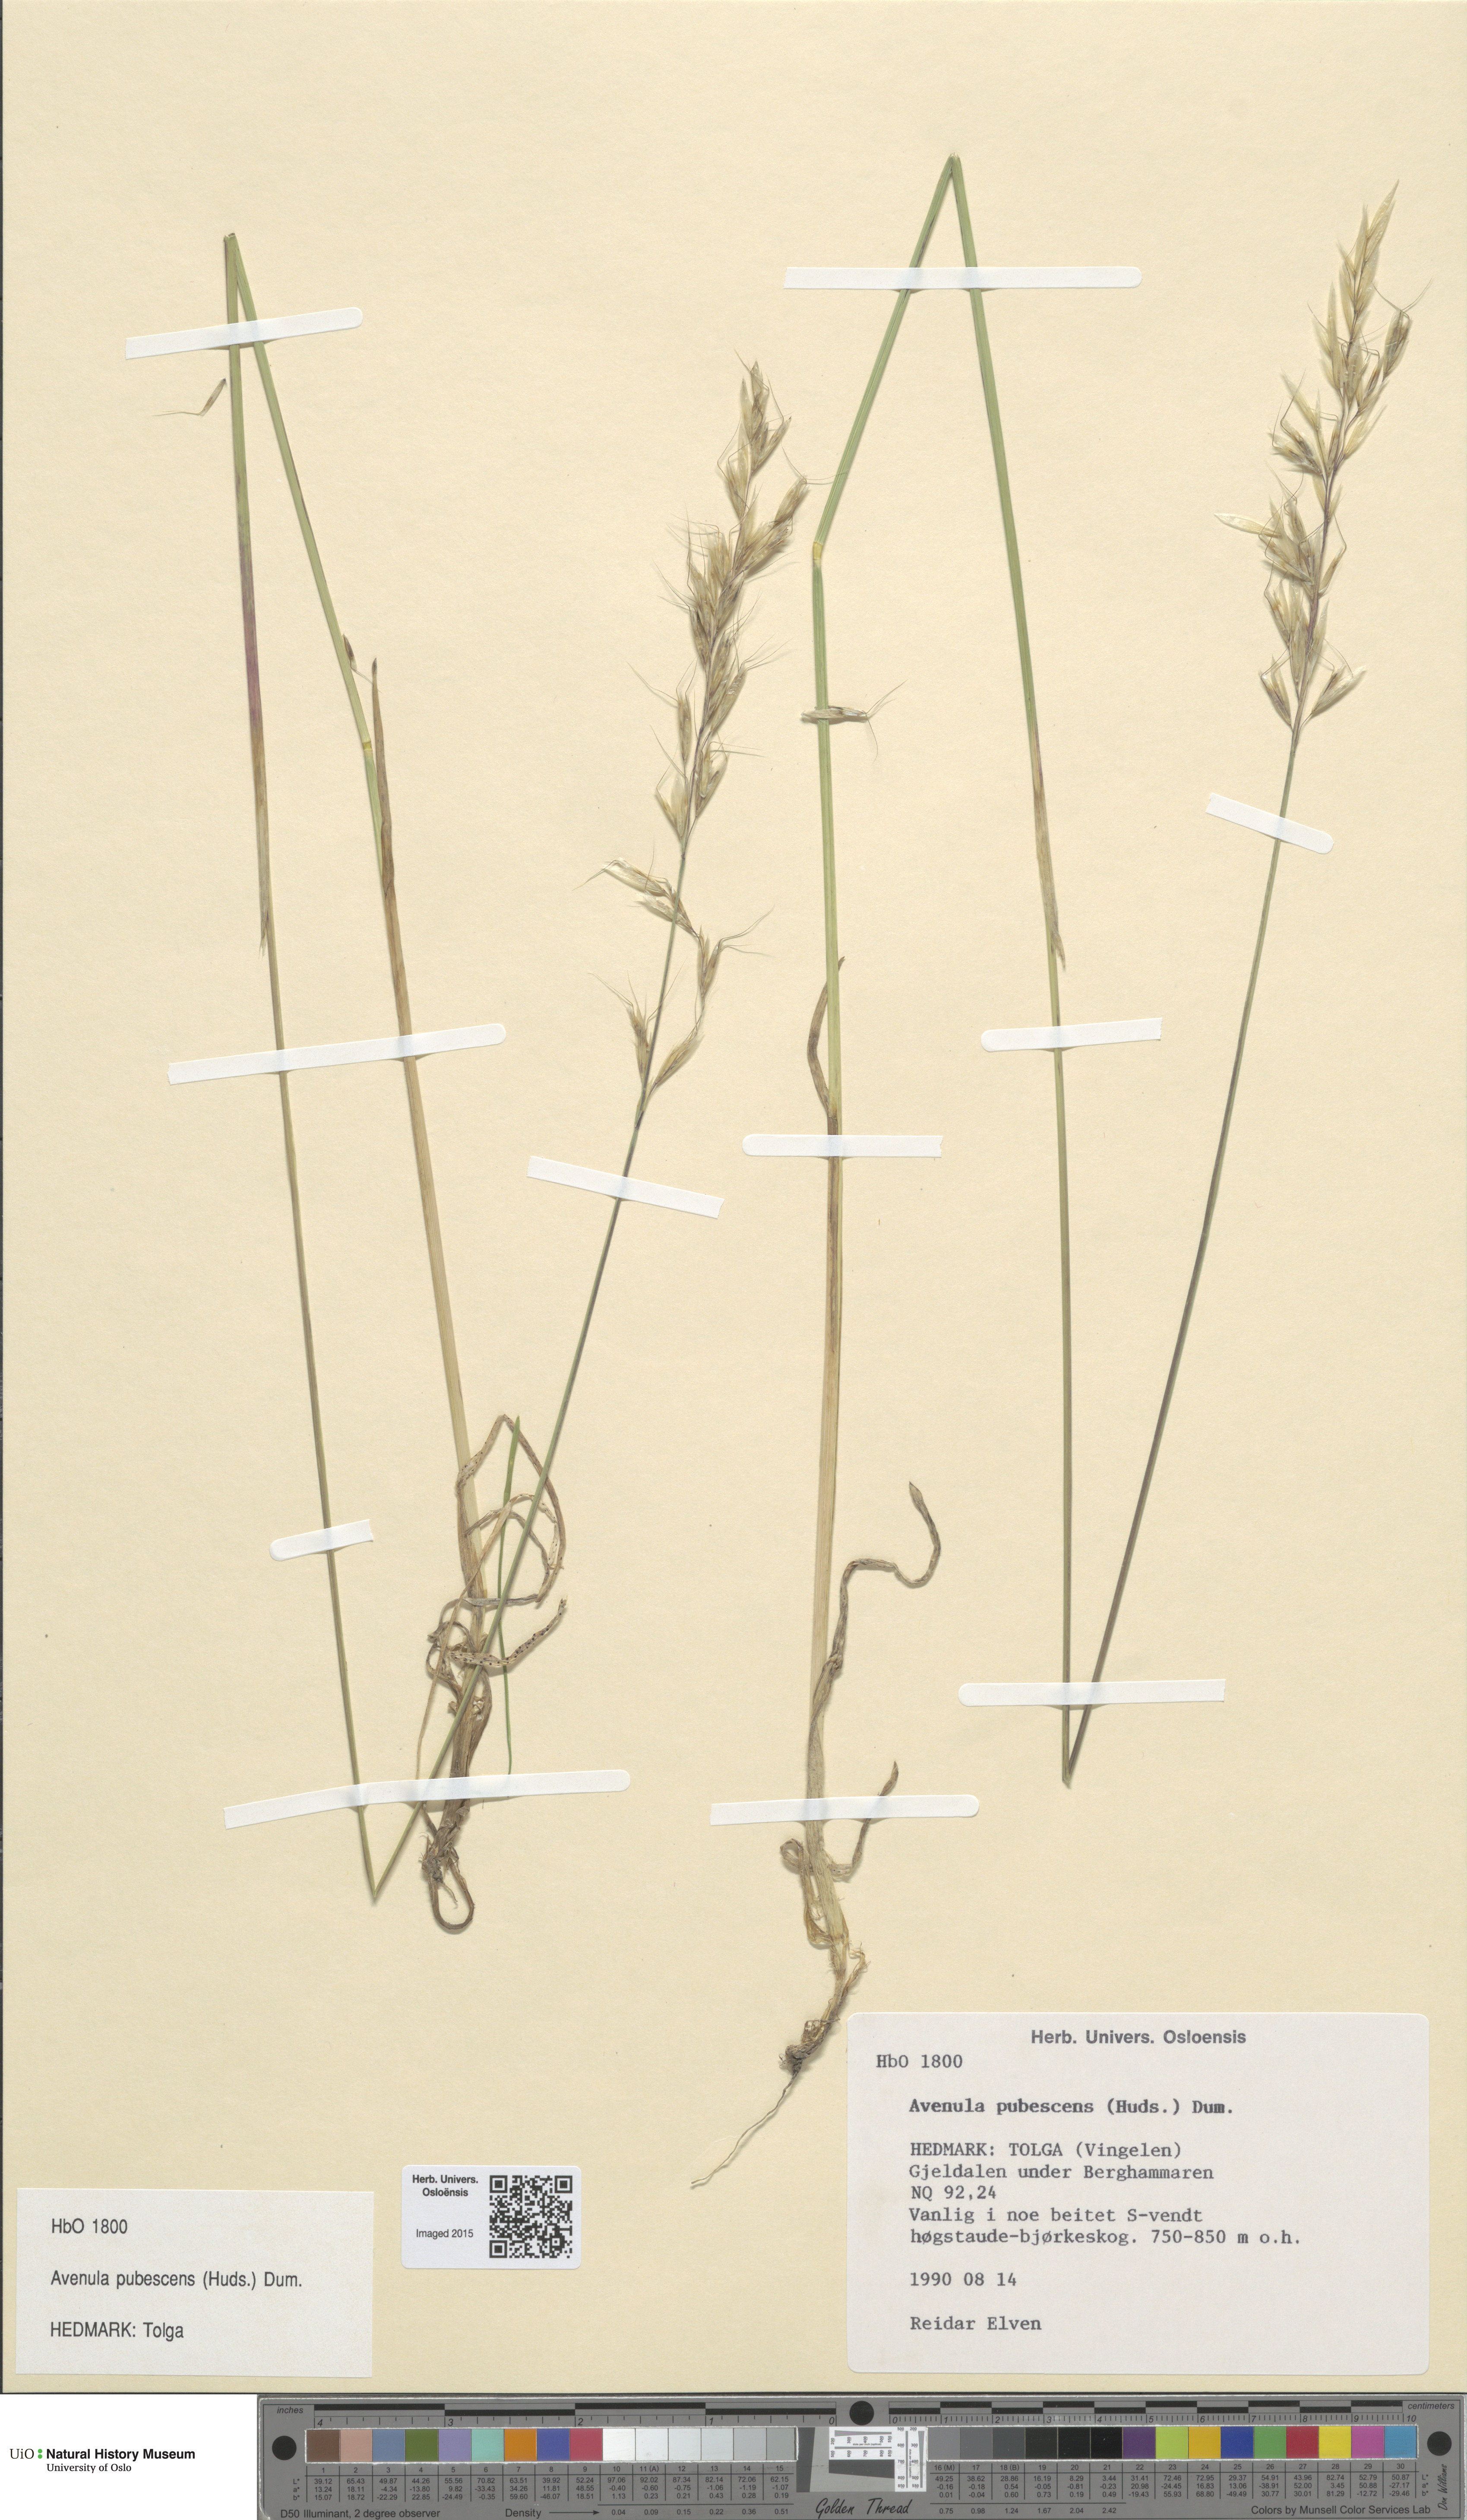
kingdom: Plantae
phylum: Tracheophyta
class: Liliopsida
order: Poales
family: Poaceae
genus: Avenula
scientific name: Avenula pubescens
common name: Downy alpine oatgrass
